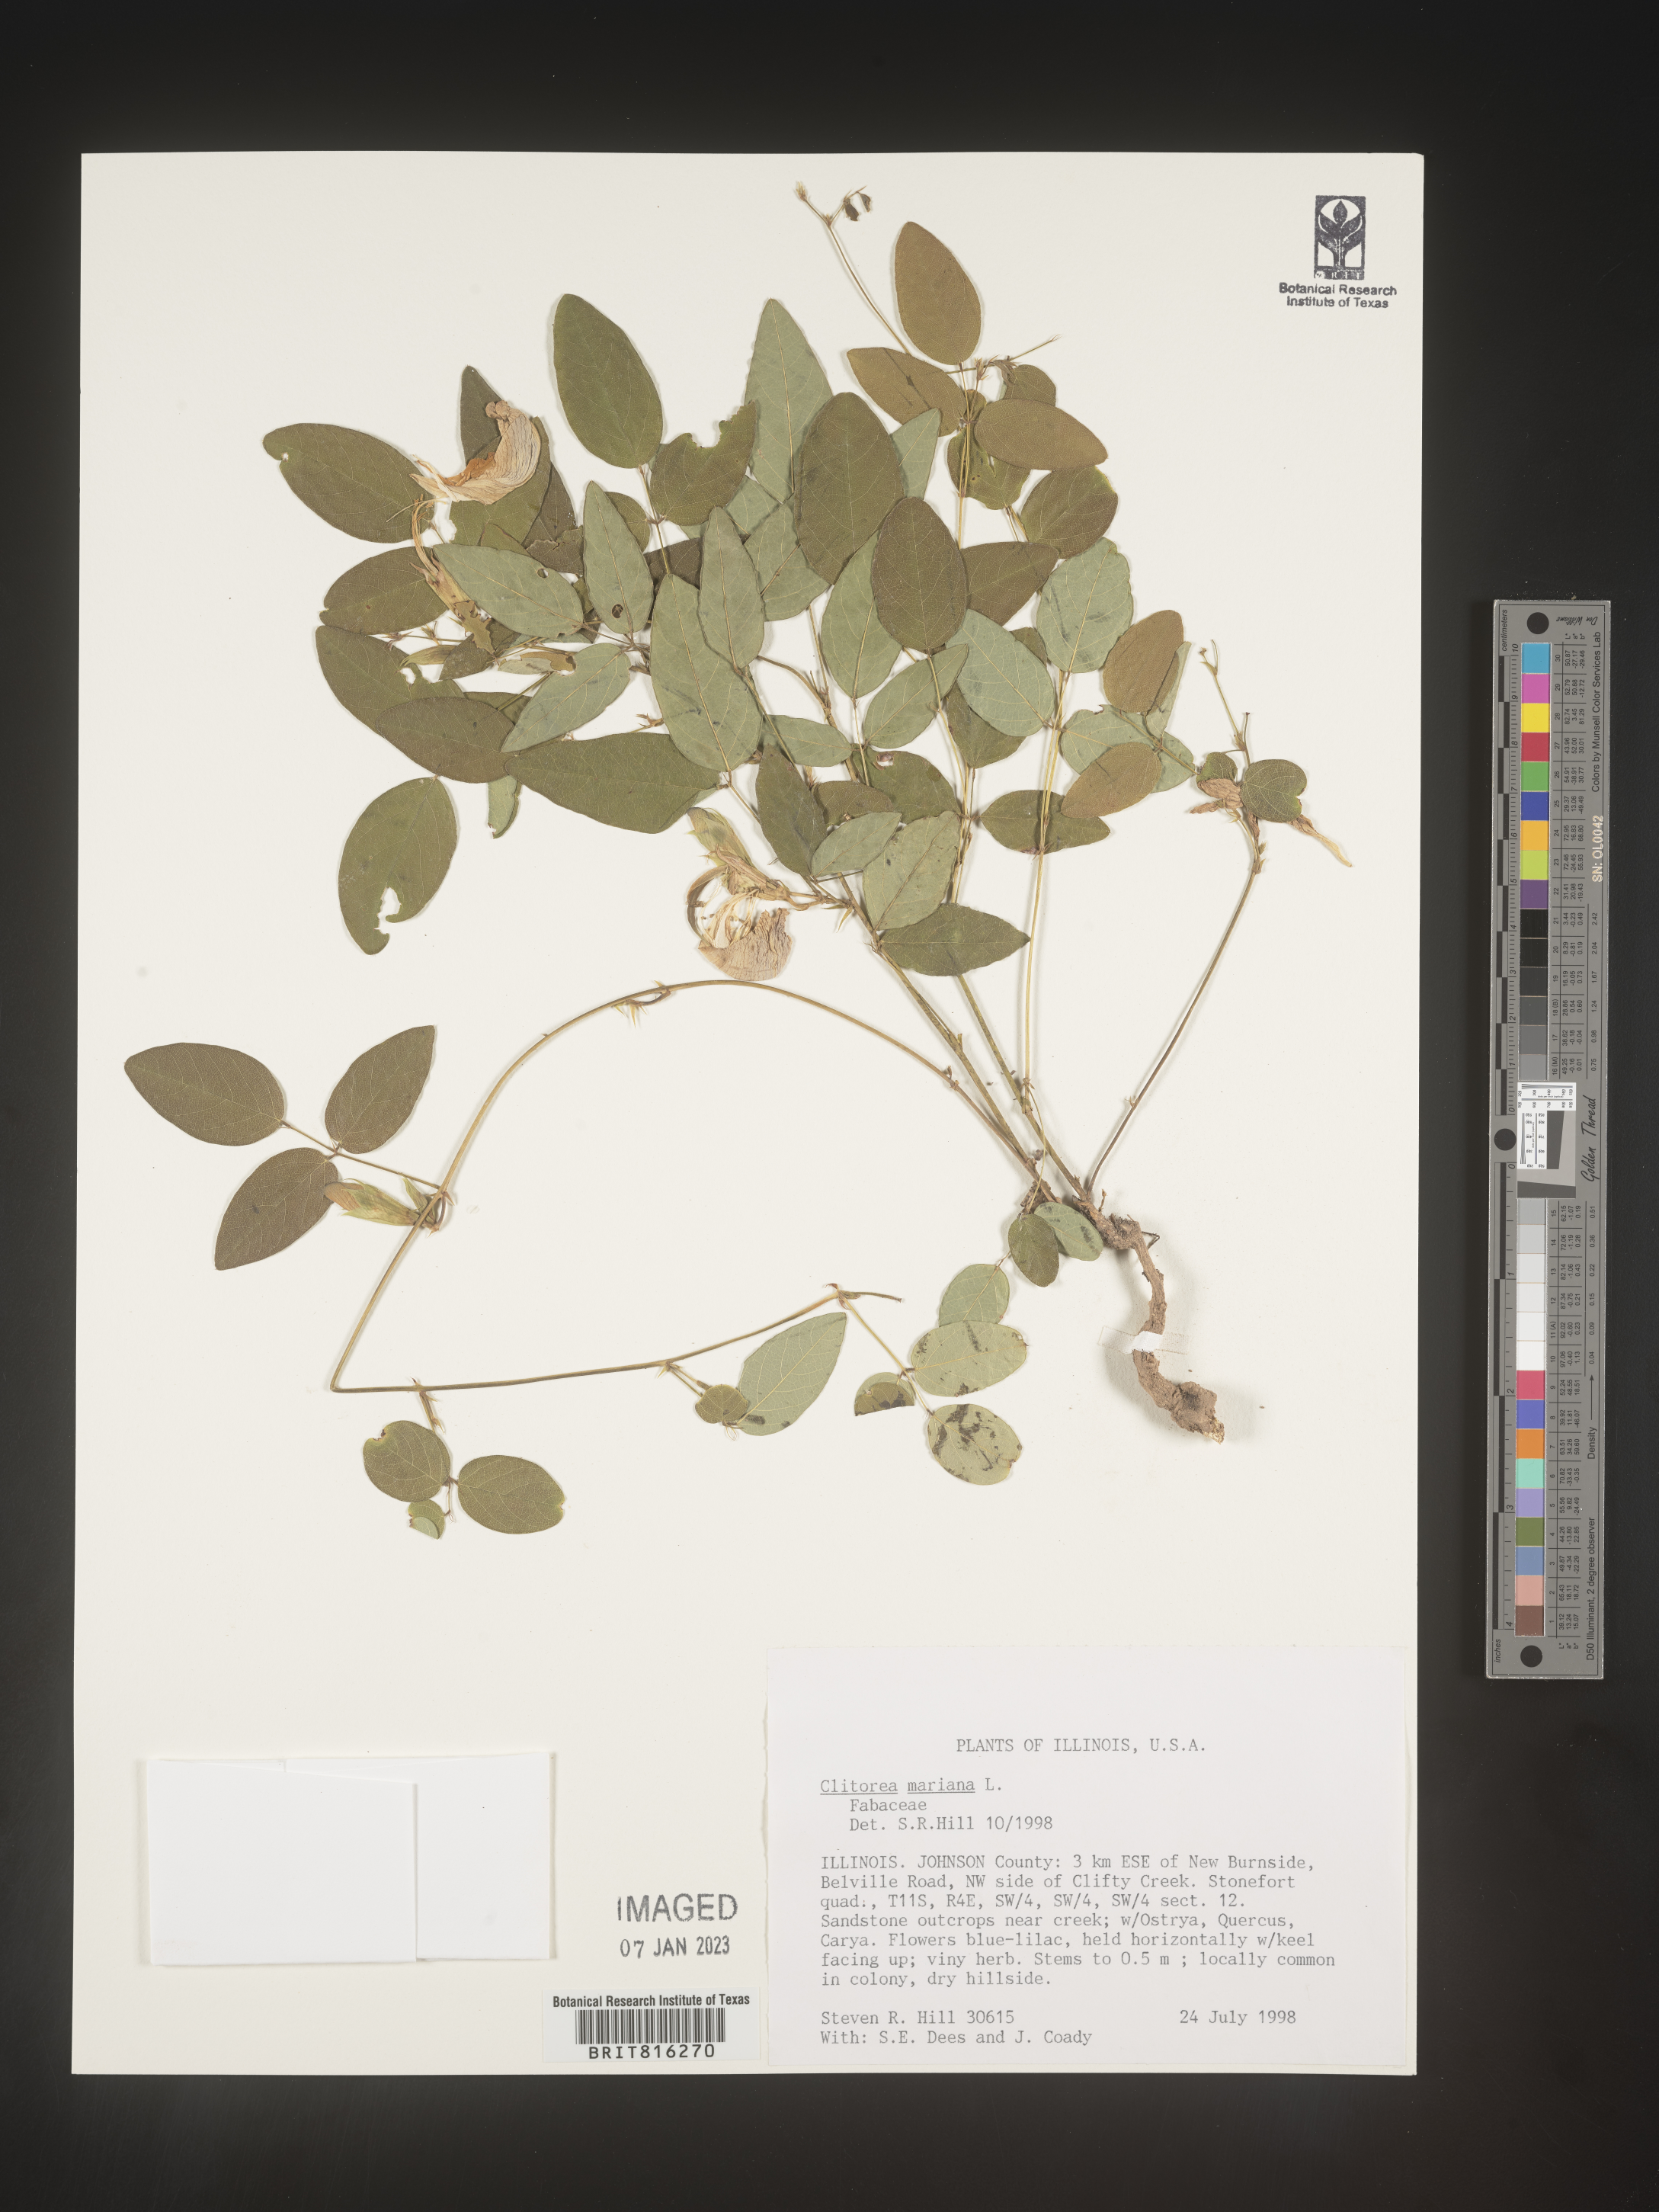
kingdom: Plantae
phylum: Tracheophyta
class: Magnoliopsida
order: Fabales
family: Fabaceae
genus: Clitoria
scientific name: Clitoria mariana
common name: Butterfly-pea
